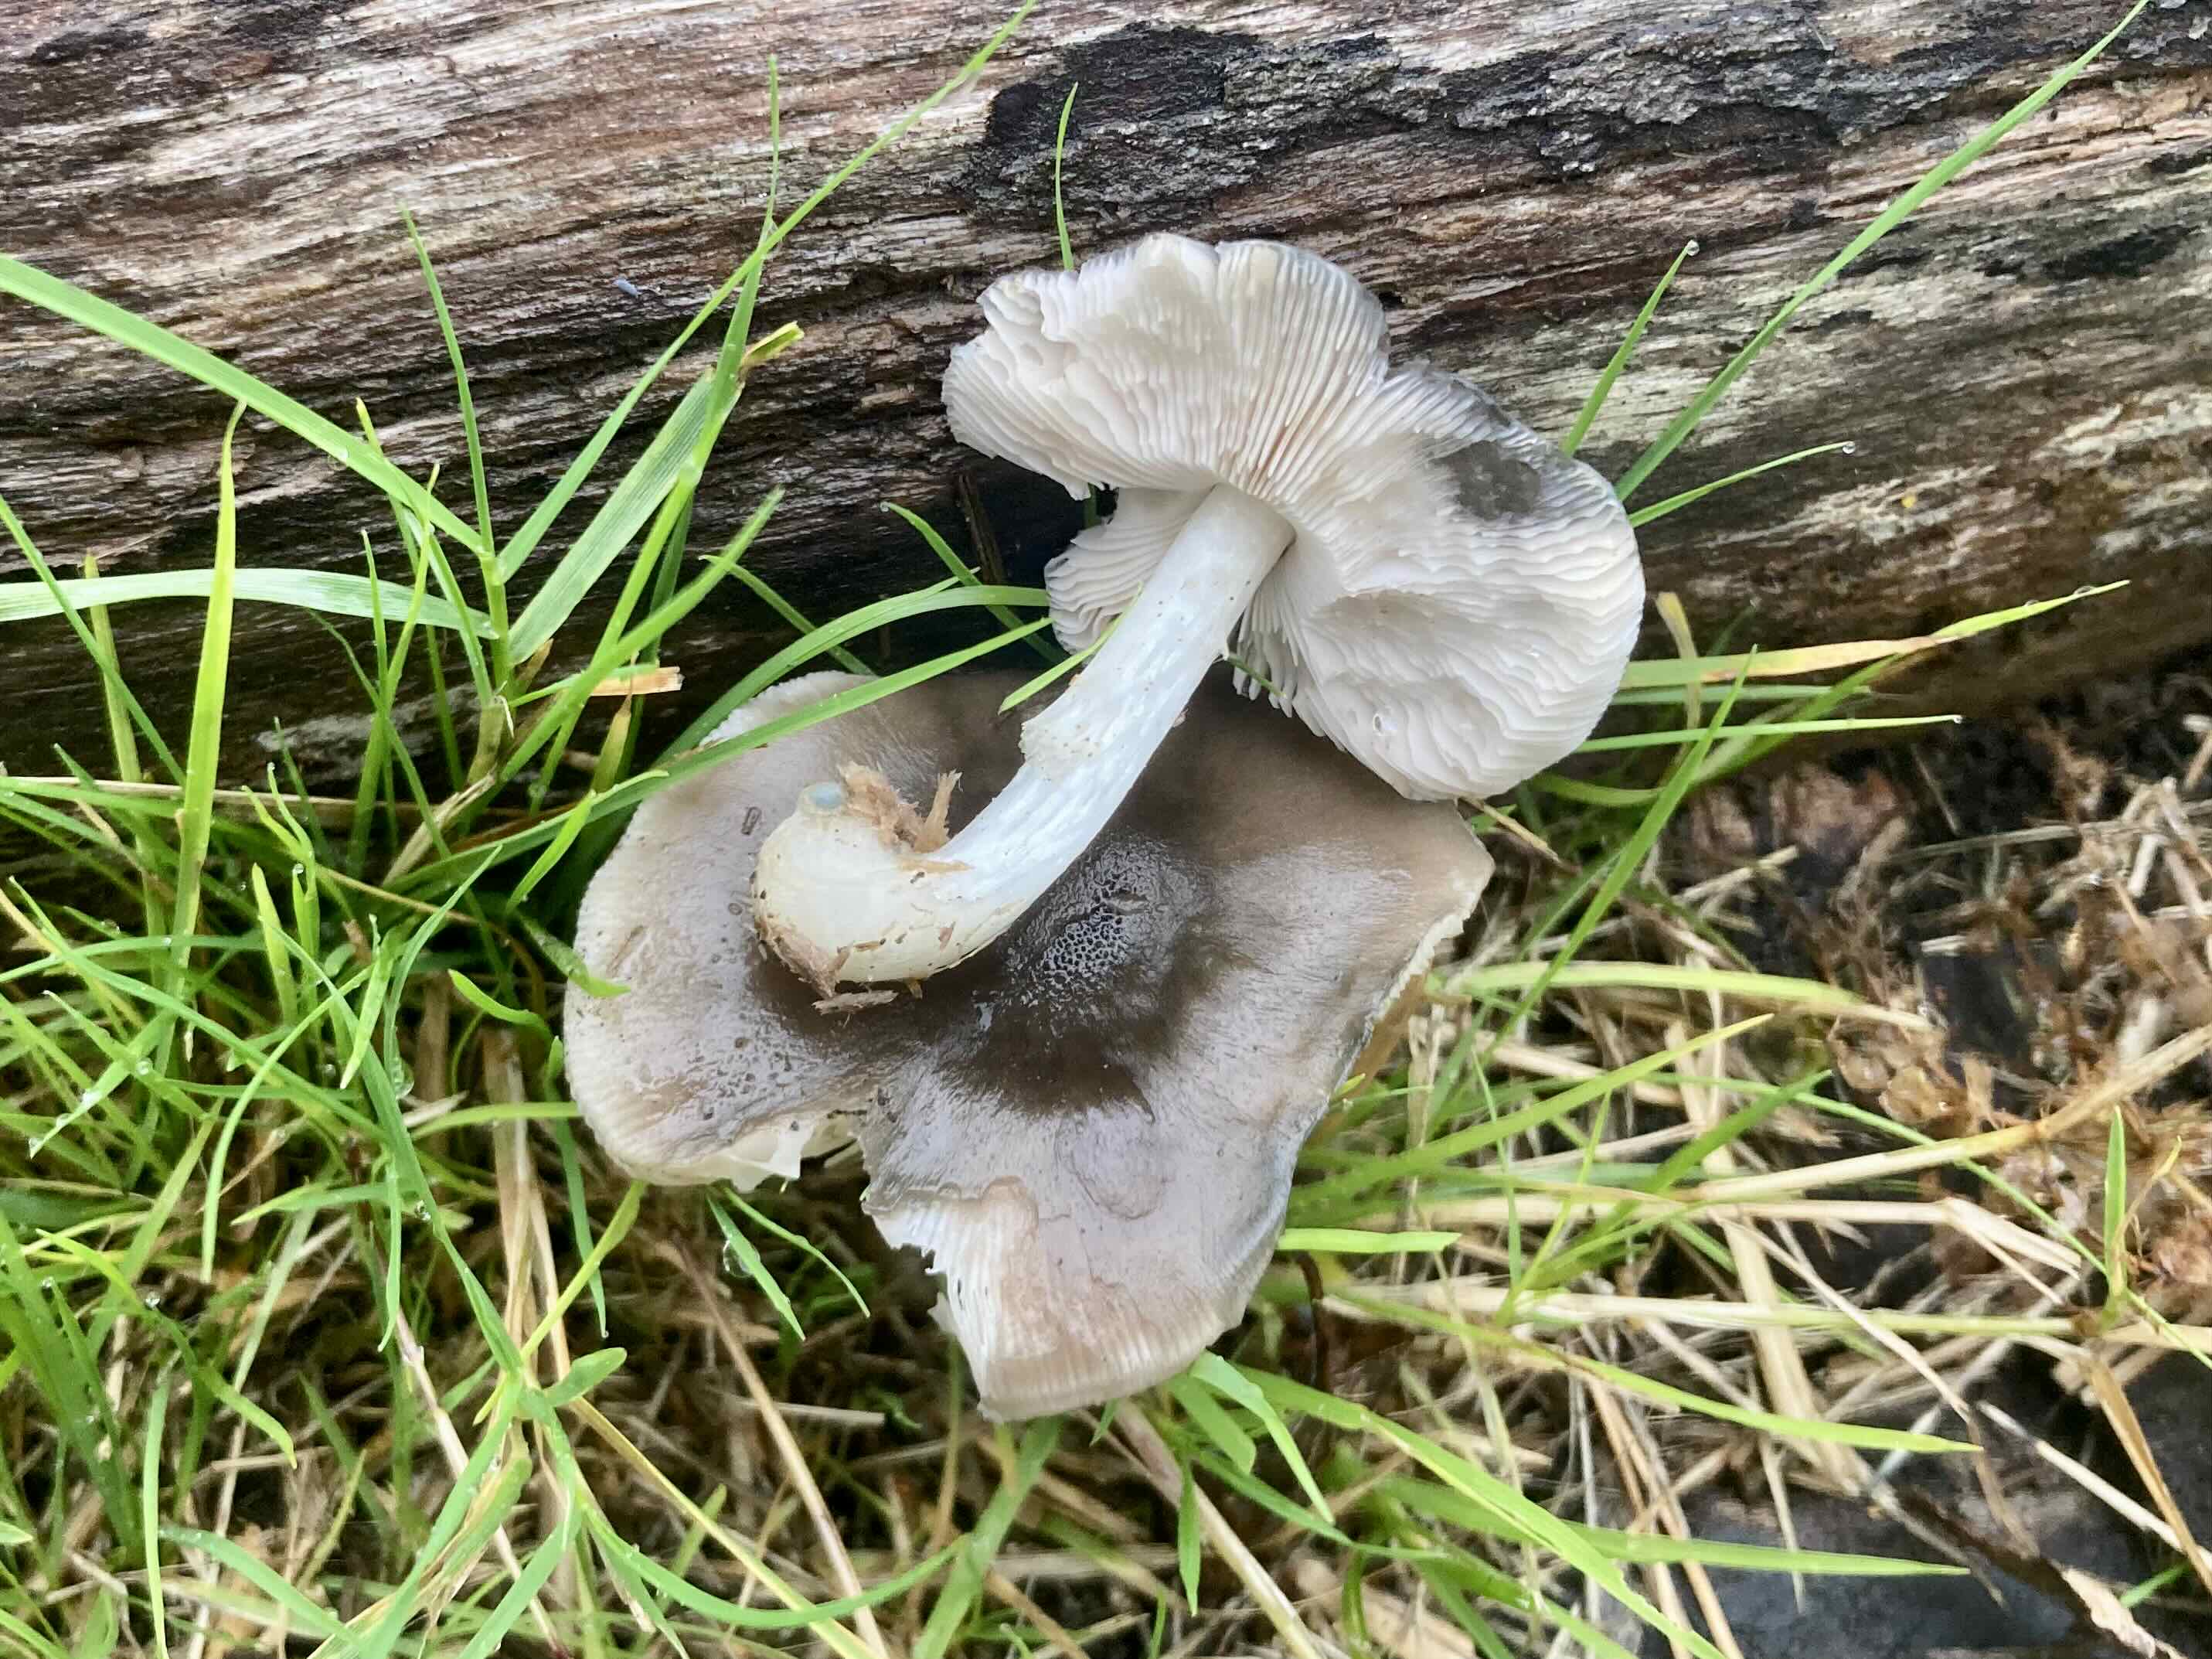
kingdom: Fungi
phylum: Basidiomycota
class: Agaricomycetes
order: Agaricales
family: Pluteaceae
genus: Pluteus
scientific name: Pluteus cervinus
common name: sodfarvet skærmhat
